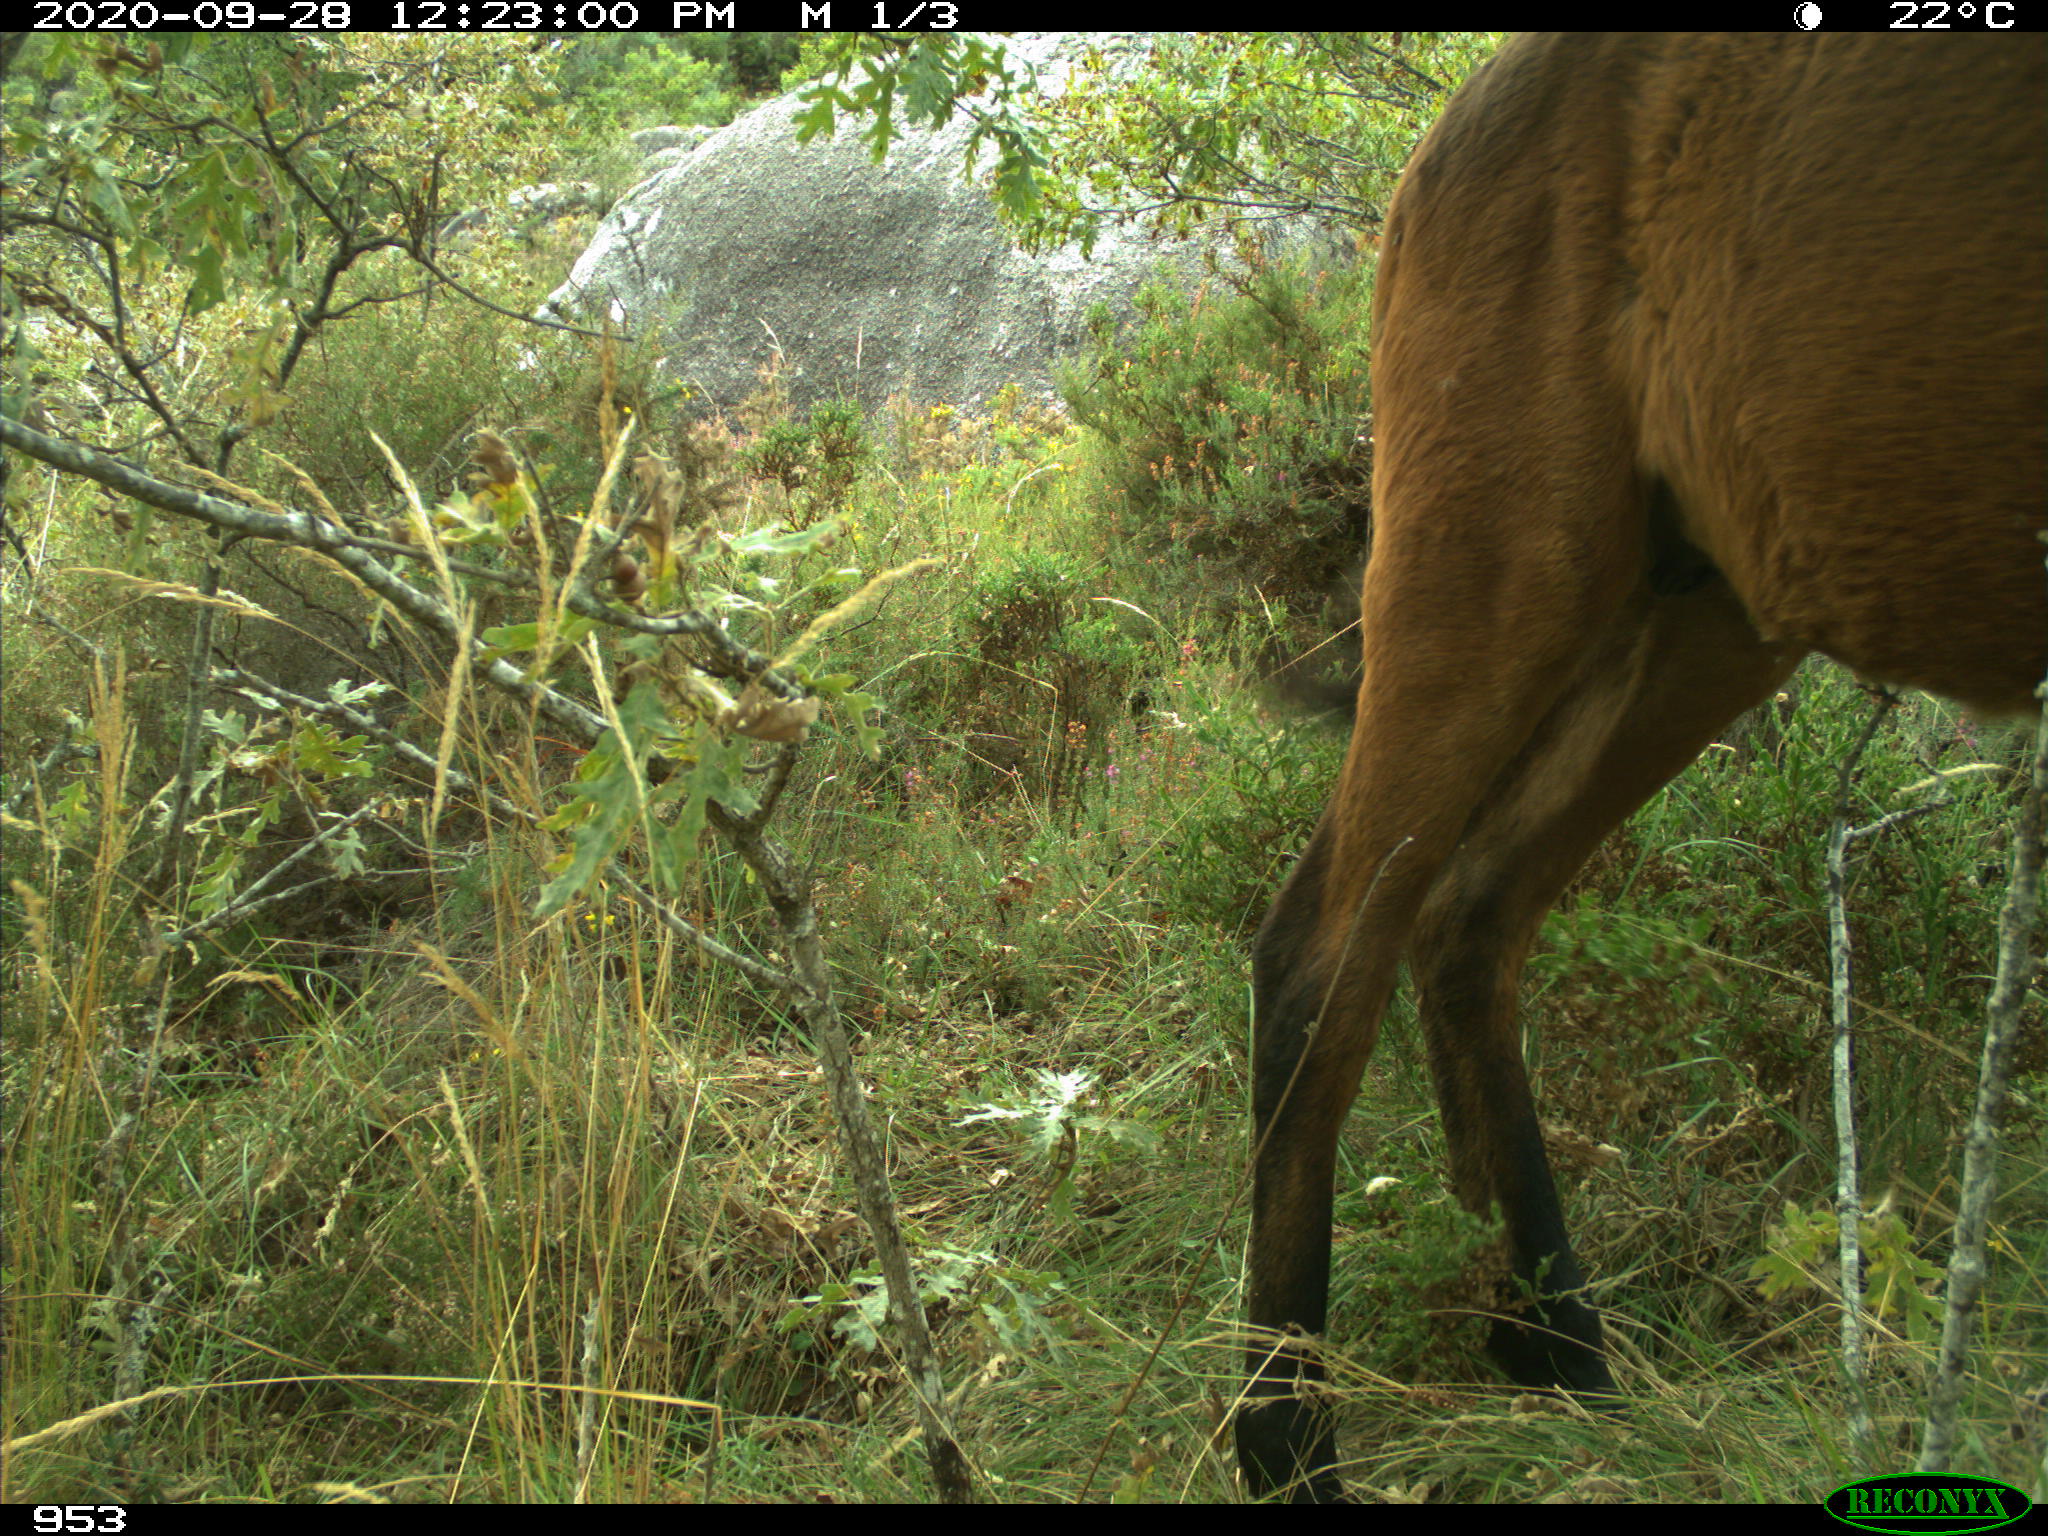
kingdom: Animalia
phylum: Chordata
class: Mammalia
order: Perissodactyla
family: Equidae
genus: Equus
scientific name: Equus caballus
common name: Horse
